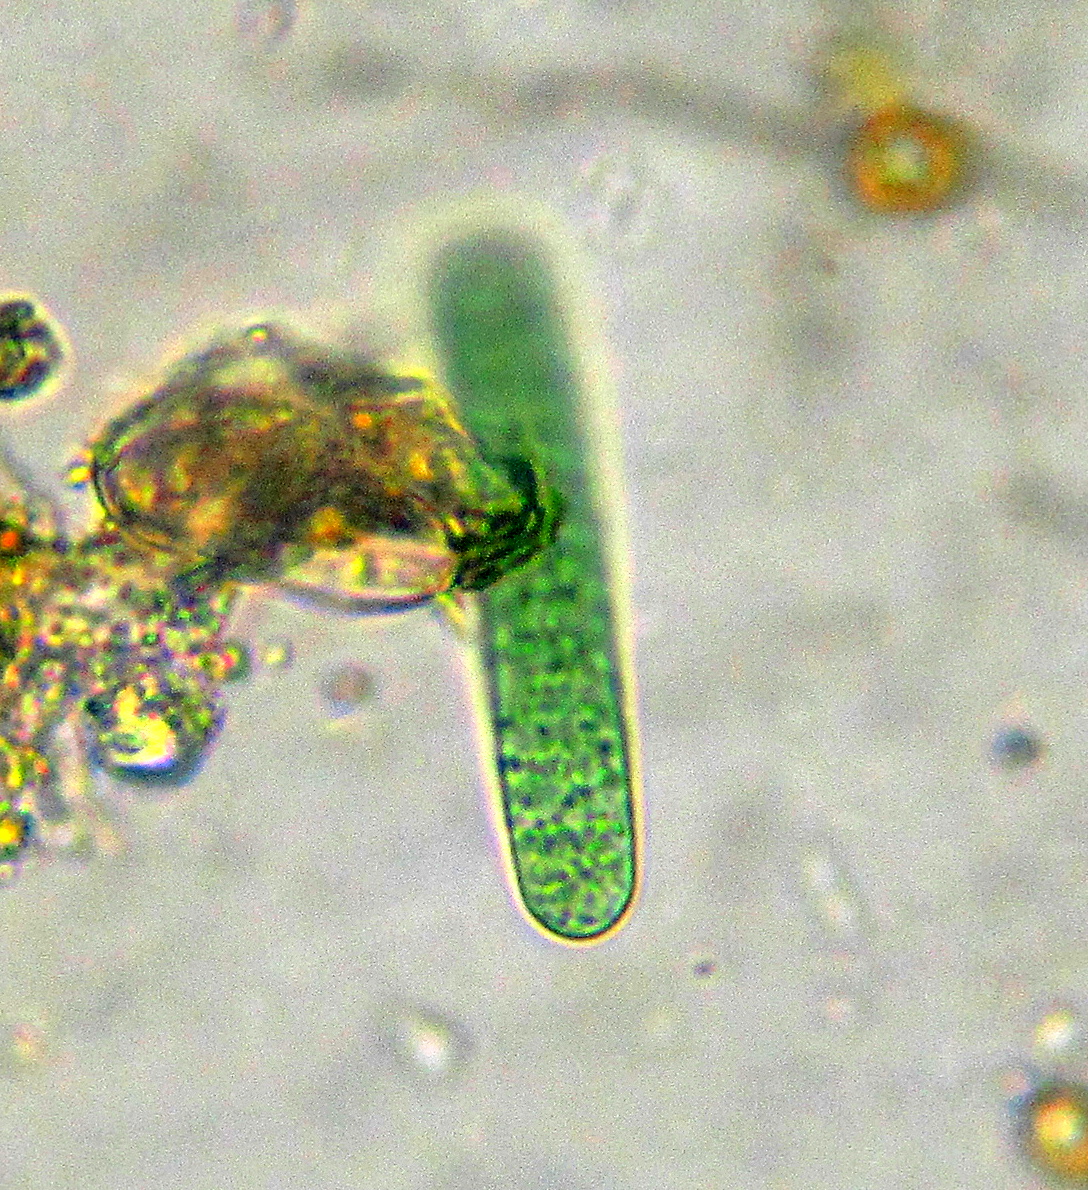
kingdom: Bacteria
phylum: Cyanobacteria
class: Cyanobacteriia
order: Cyanobacteriales
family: Oscillatoriaceae
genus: Oscillatoria
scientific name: Oscillatoria
